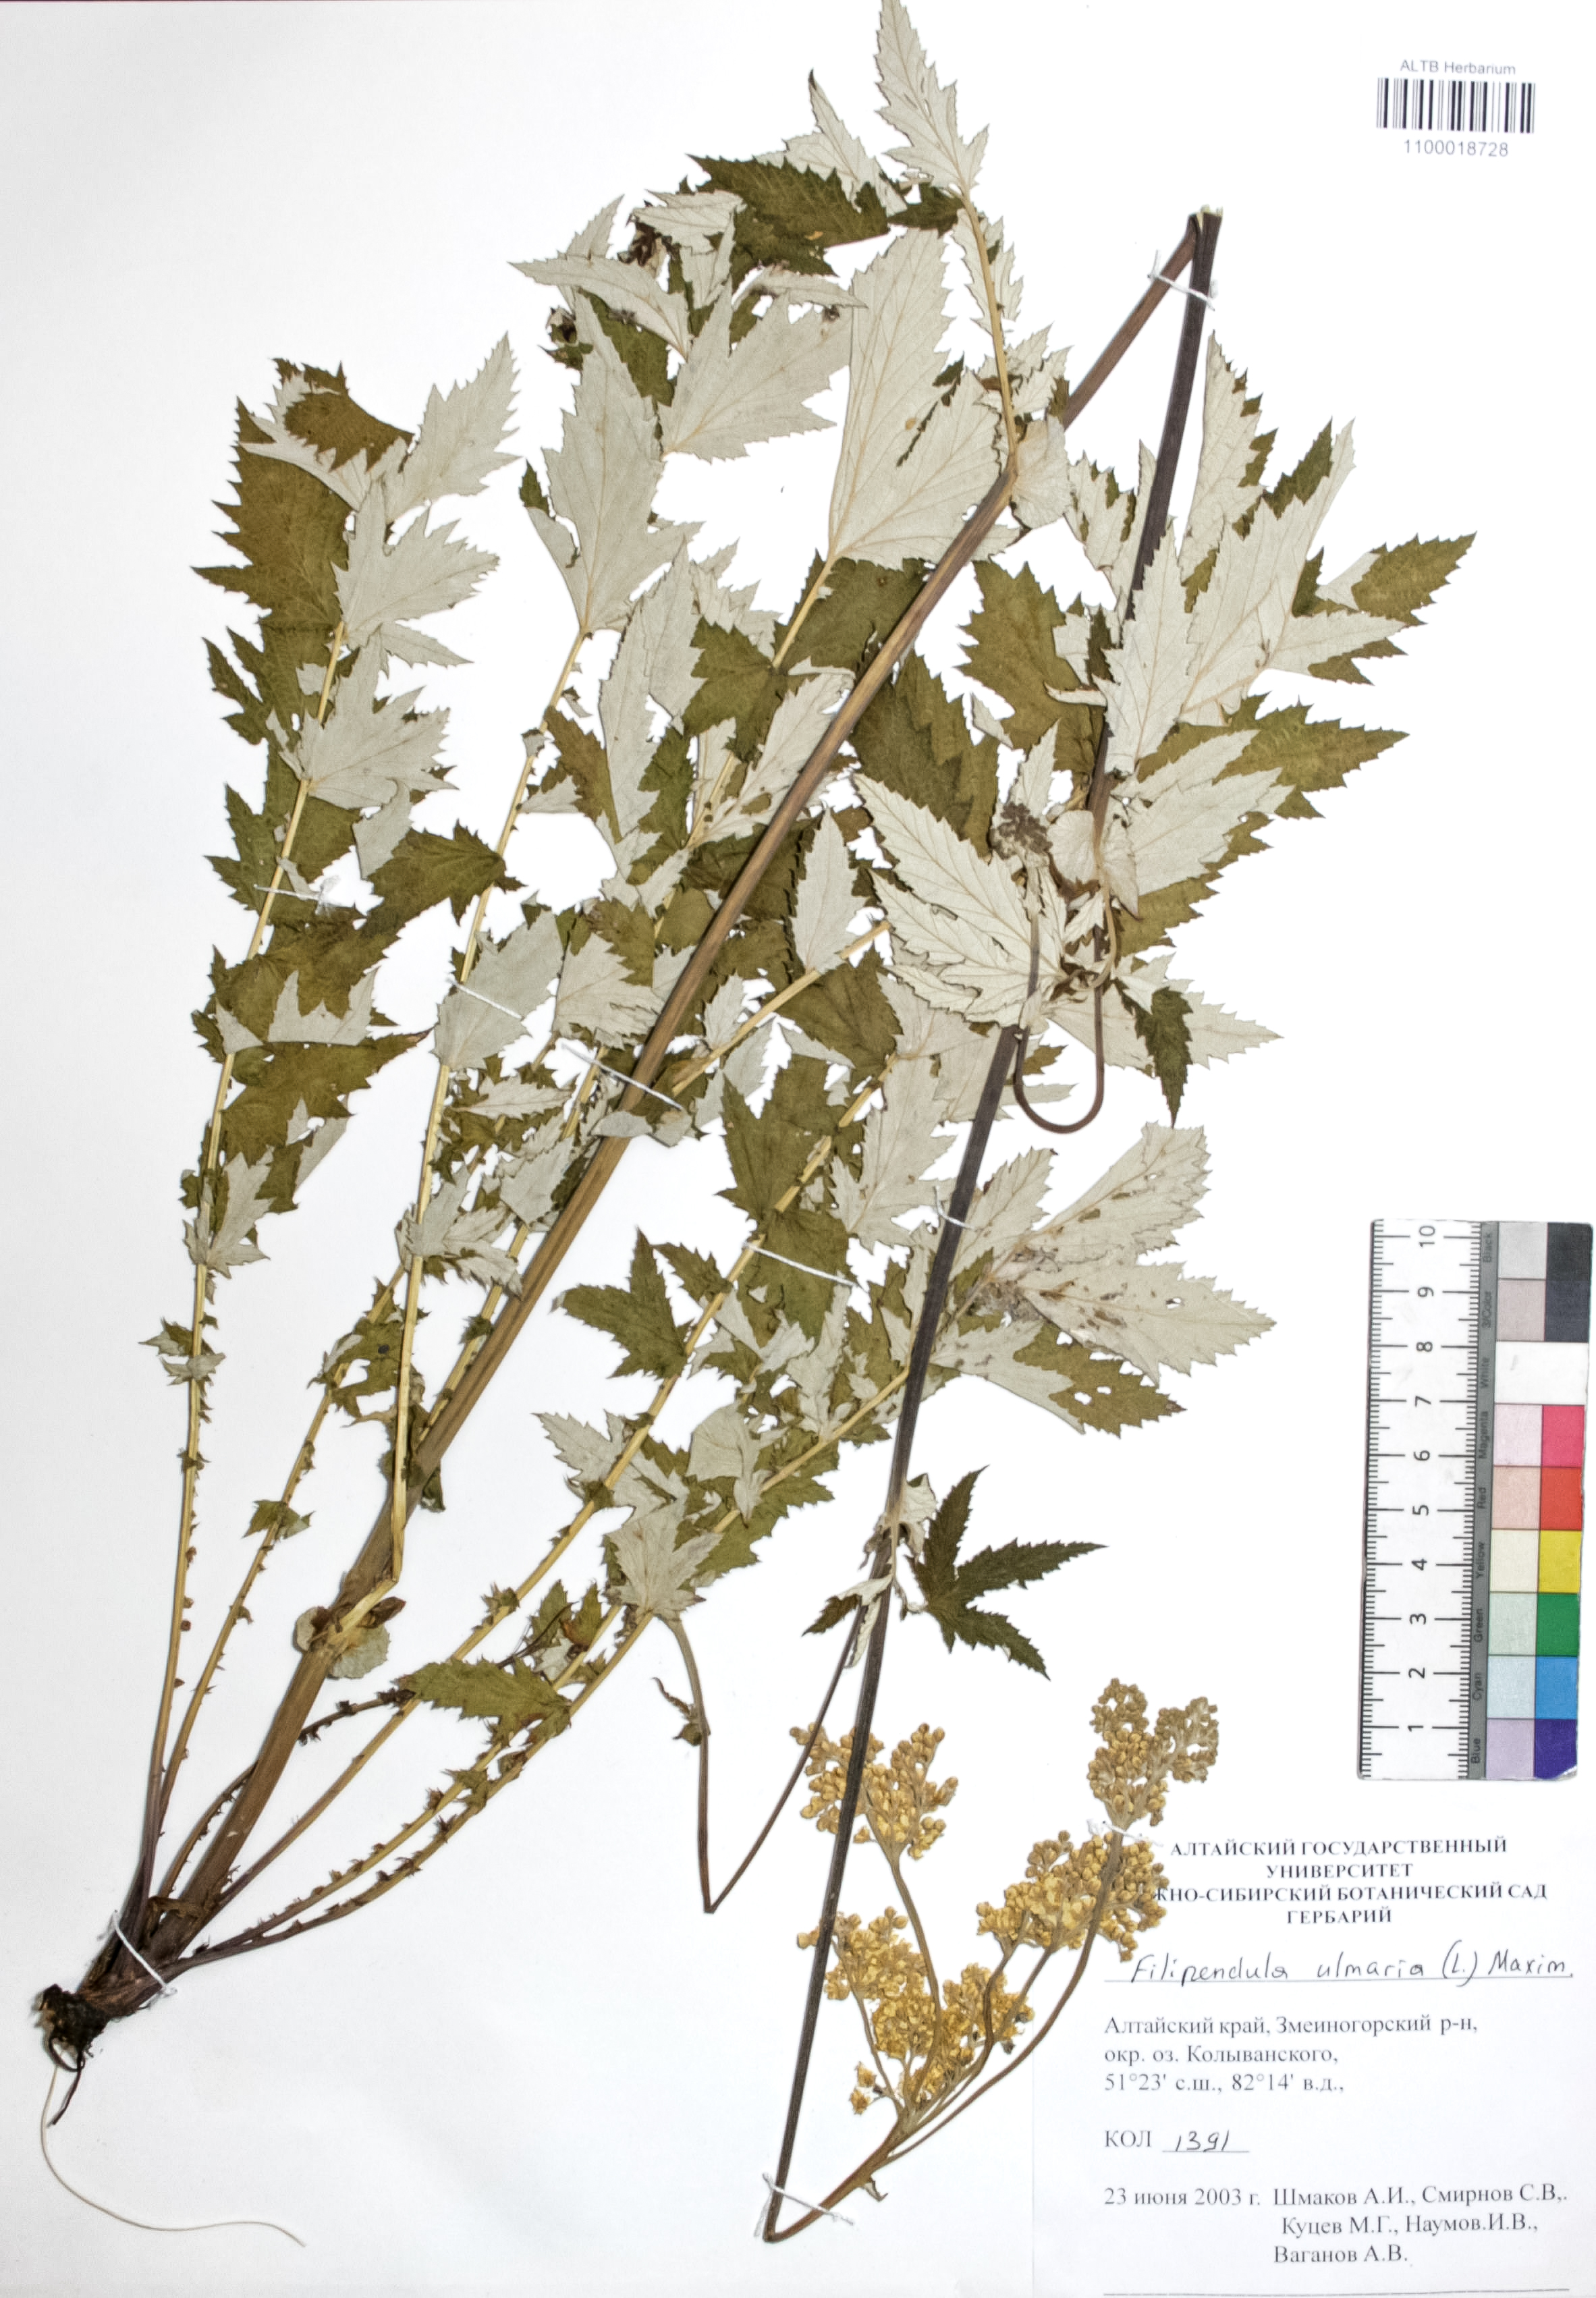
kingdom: Plantae
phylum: Tracheophyta
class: Magnoliopsida
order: Rosales
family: Rosaceae
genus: Filipendula
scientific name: Filipendula ulmaria
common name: Meadowsweet
